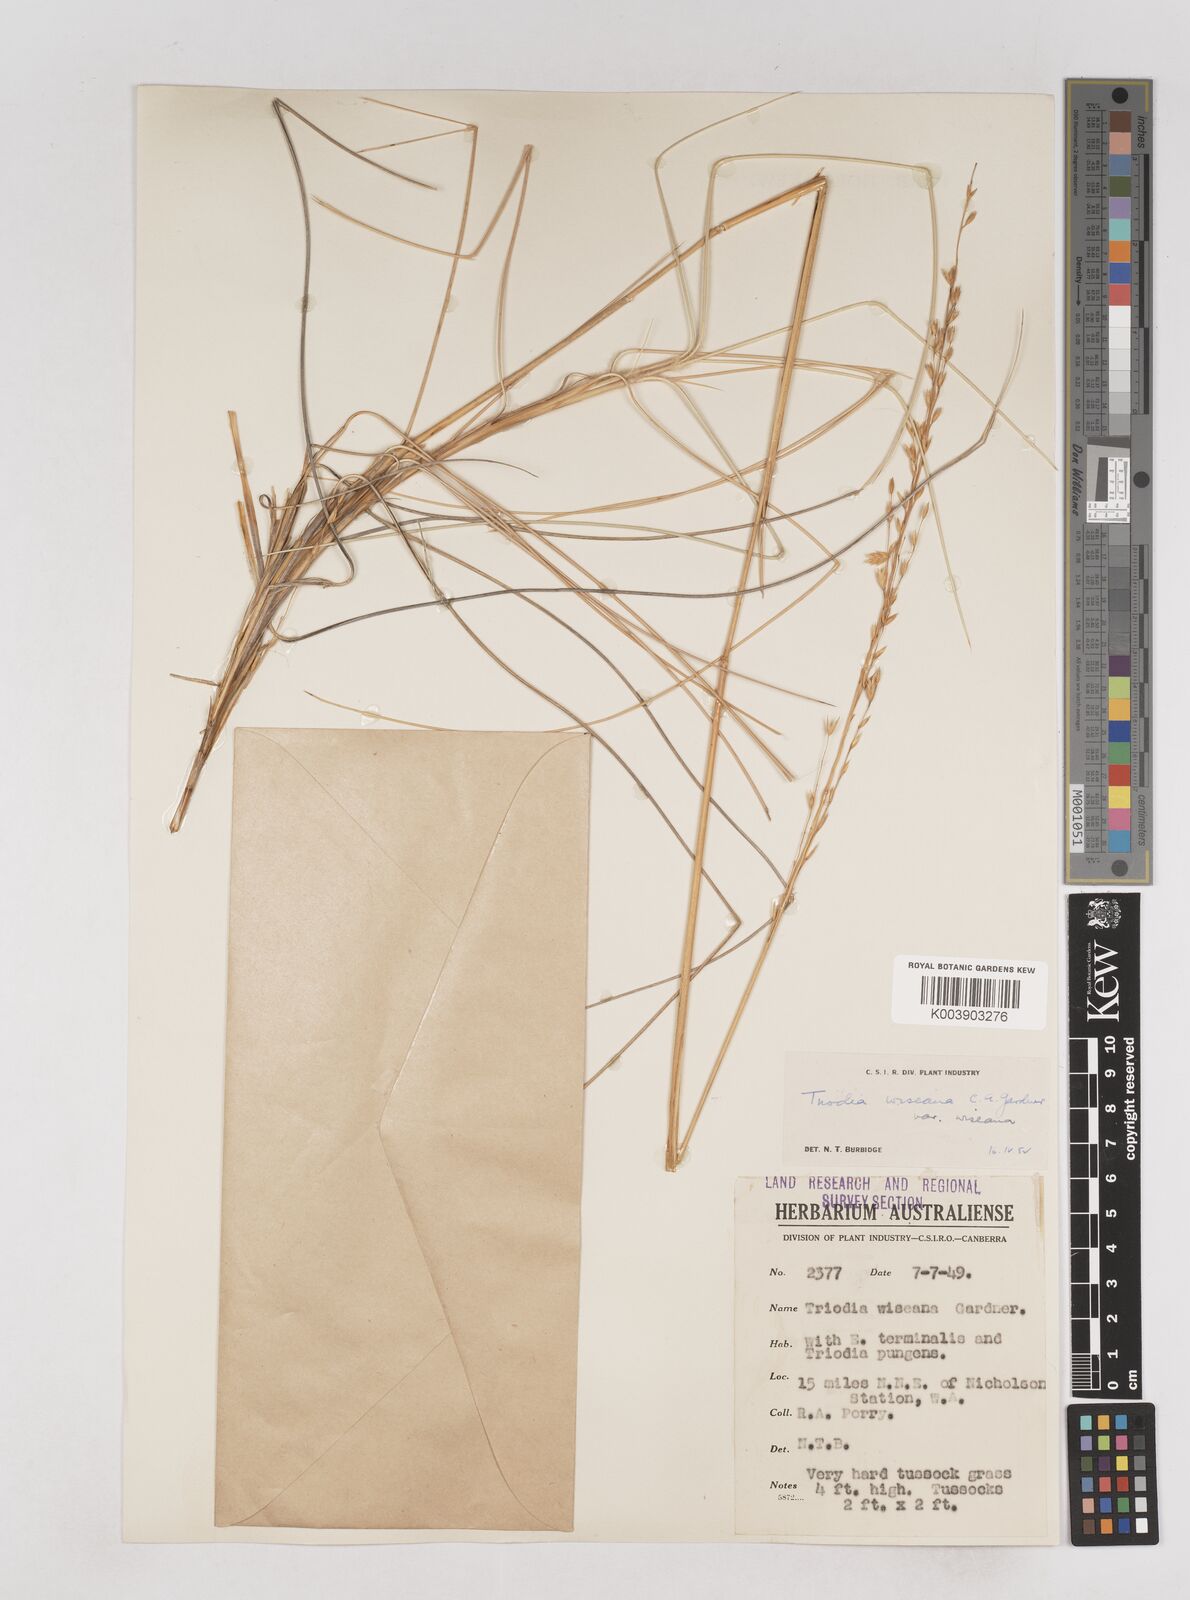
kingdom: Plantae
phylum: Tracheophyta
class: Liliopsida
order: Poales
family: Poaceae
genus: Triodia
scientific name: Triodia wiseana
